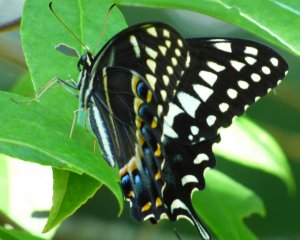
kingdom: Animalia
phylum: Arthropoda
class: Insecta
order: Lepidoptera
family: Papilionidae
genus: Pterourus
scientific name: Pterourus palamedes
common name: Palamedes Swallowtail
